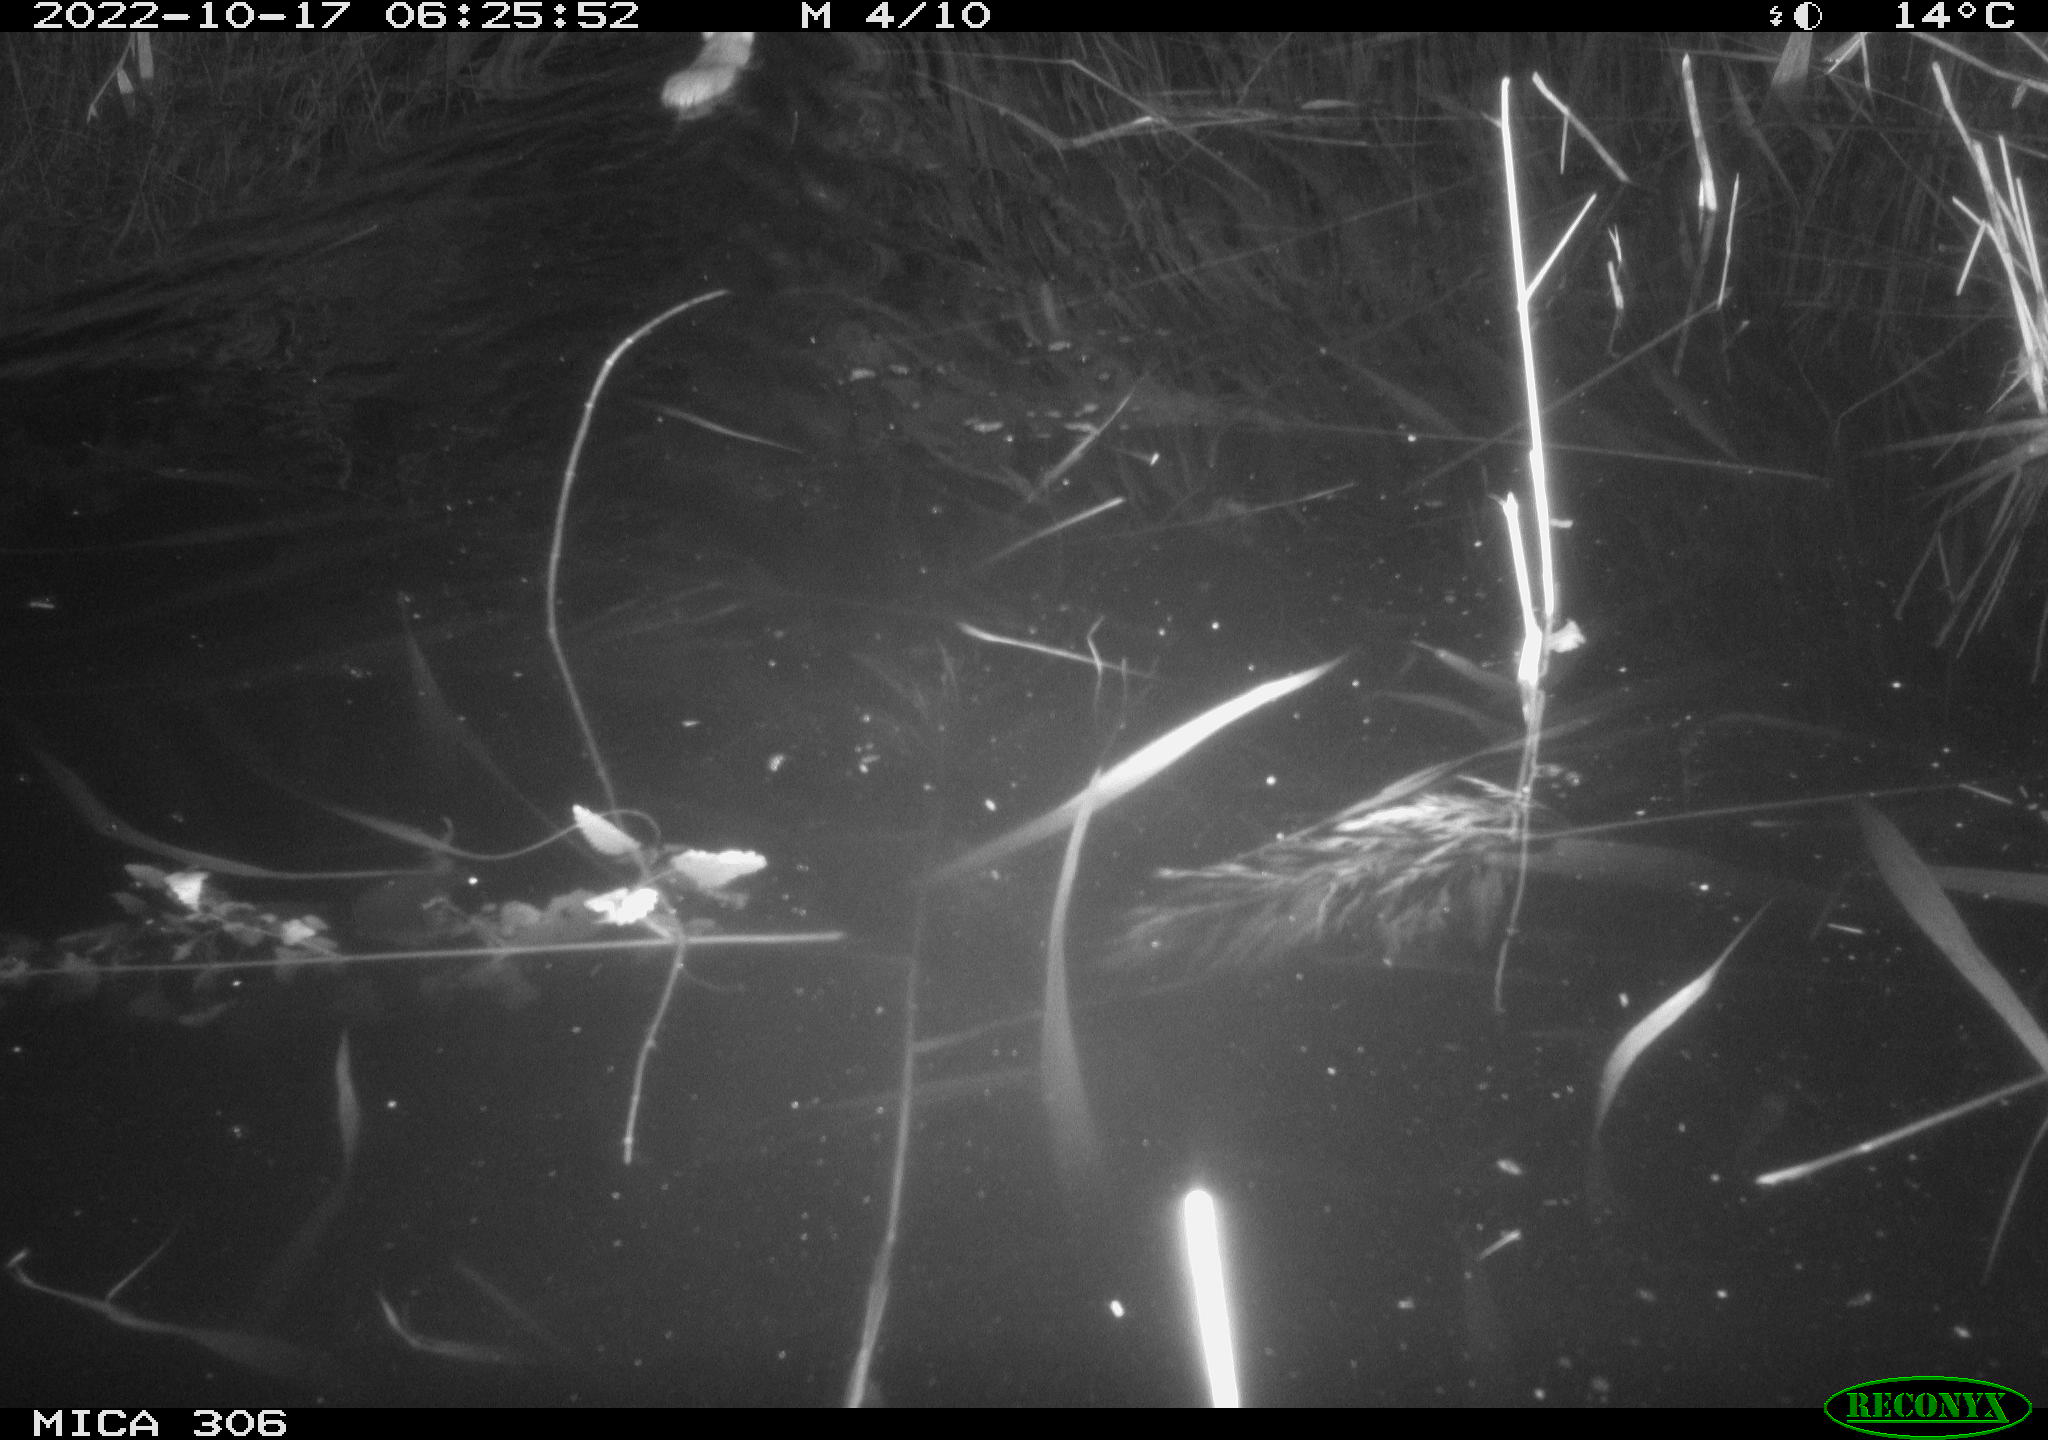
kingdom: Animalia
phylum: Chordata
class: Mammalia
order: Rodentia
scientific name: Rodentia
